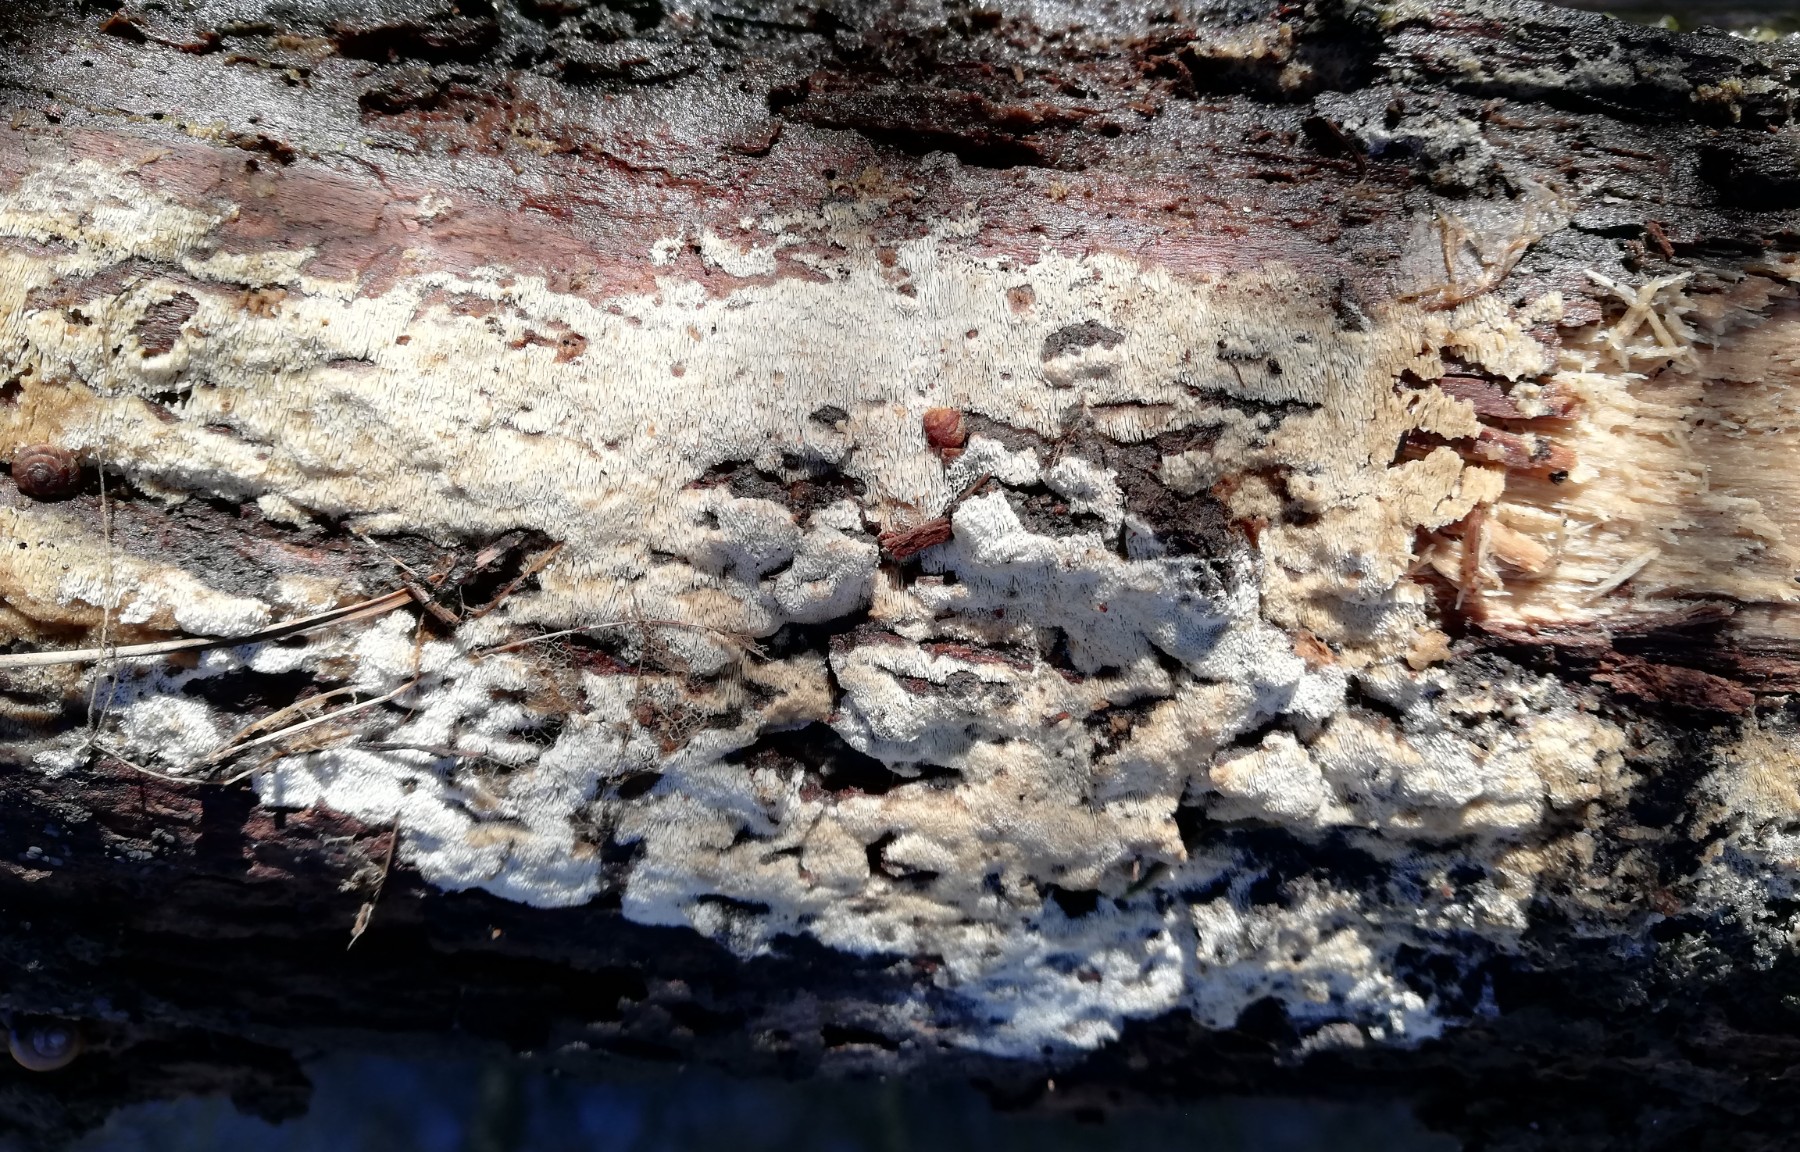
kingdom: Fungi
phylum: Basidiomycota
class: Agaricomycetes
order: Hymenochaetales
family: Schizoporaceae
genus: Xylodon
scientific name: Xylodon subtropicus
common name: labyrint-tandsvamp
